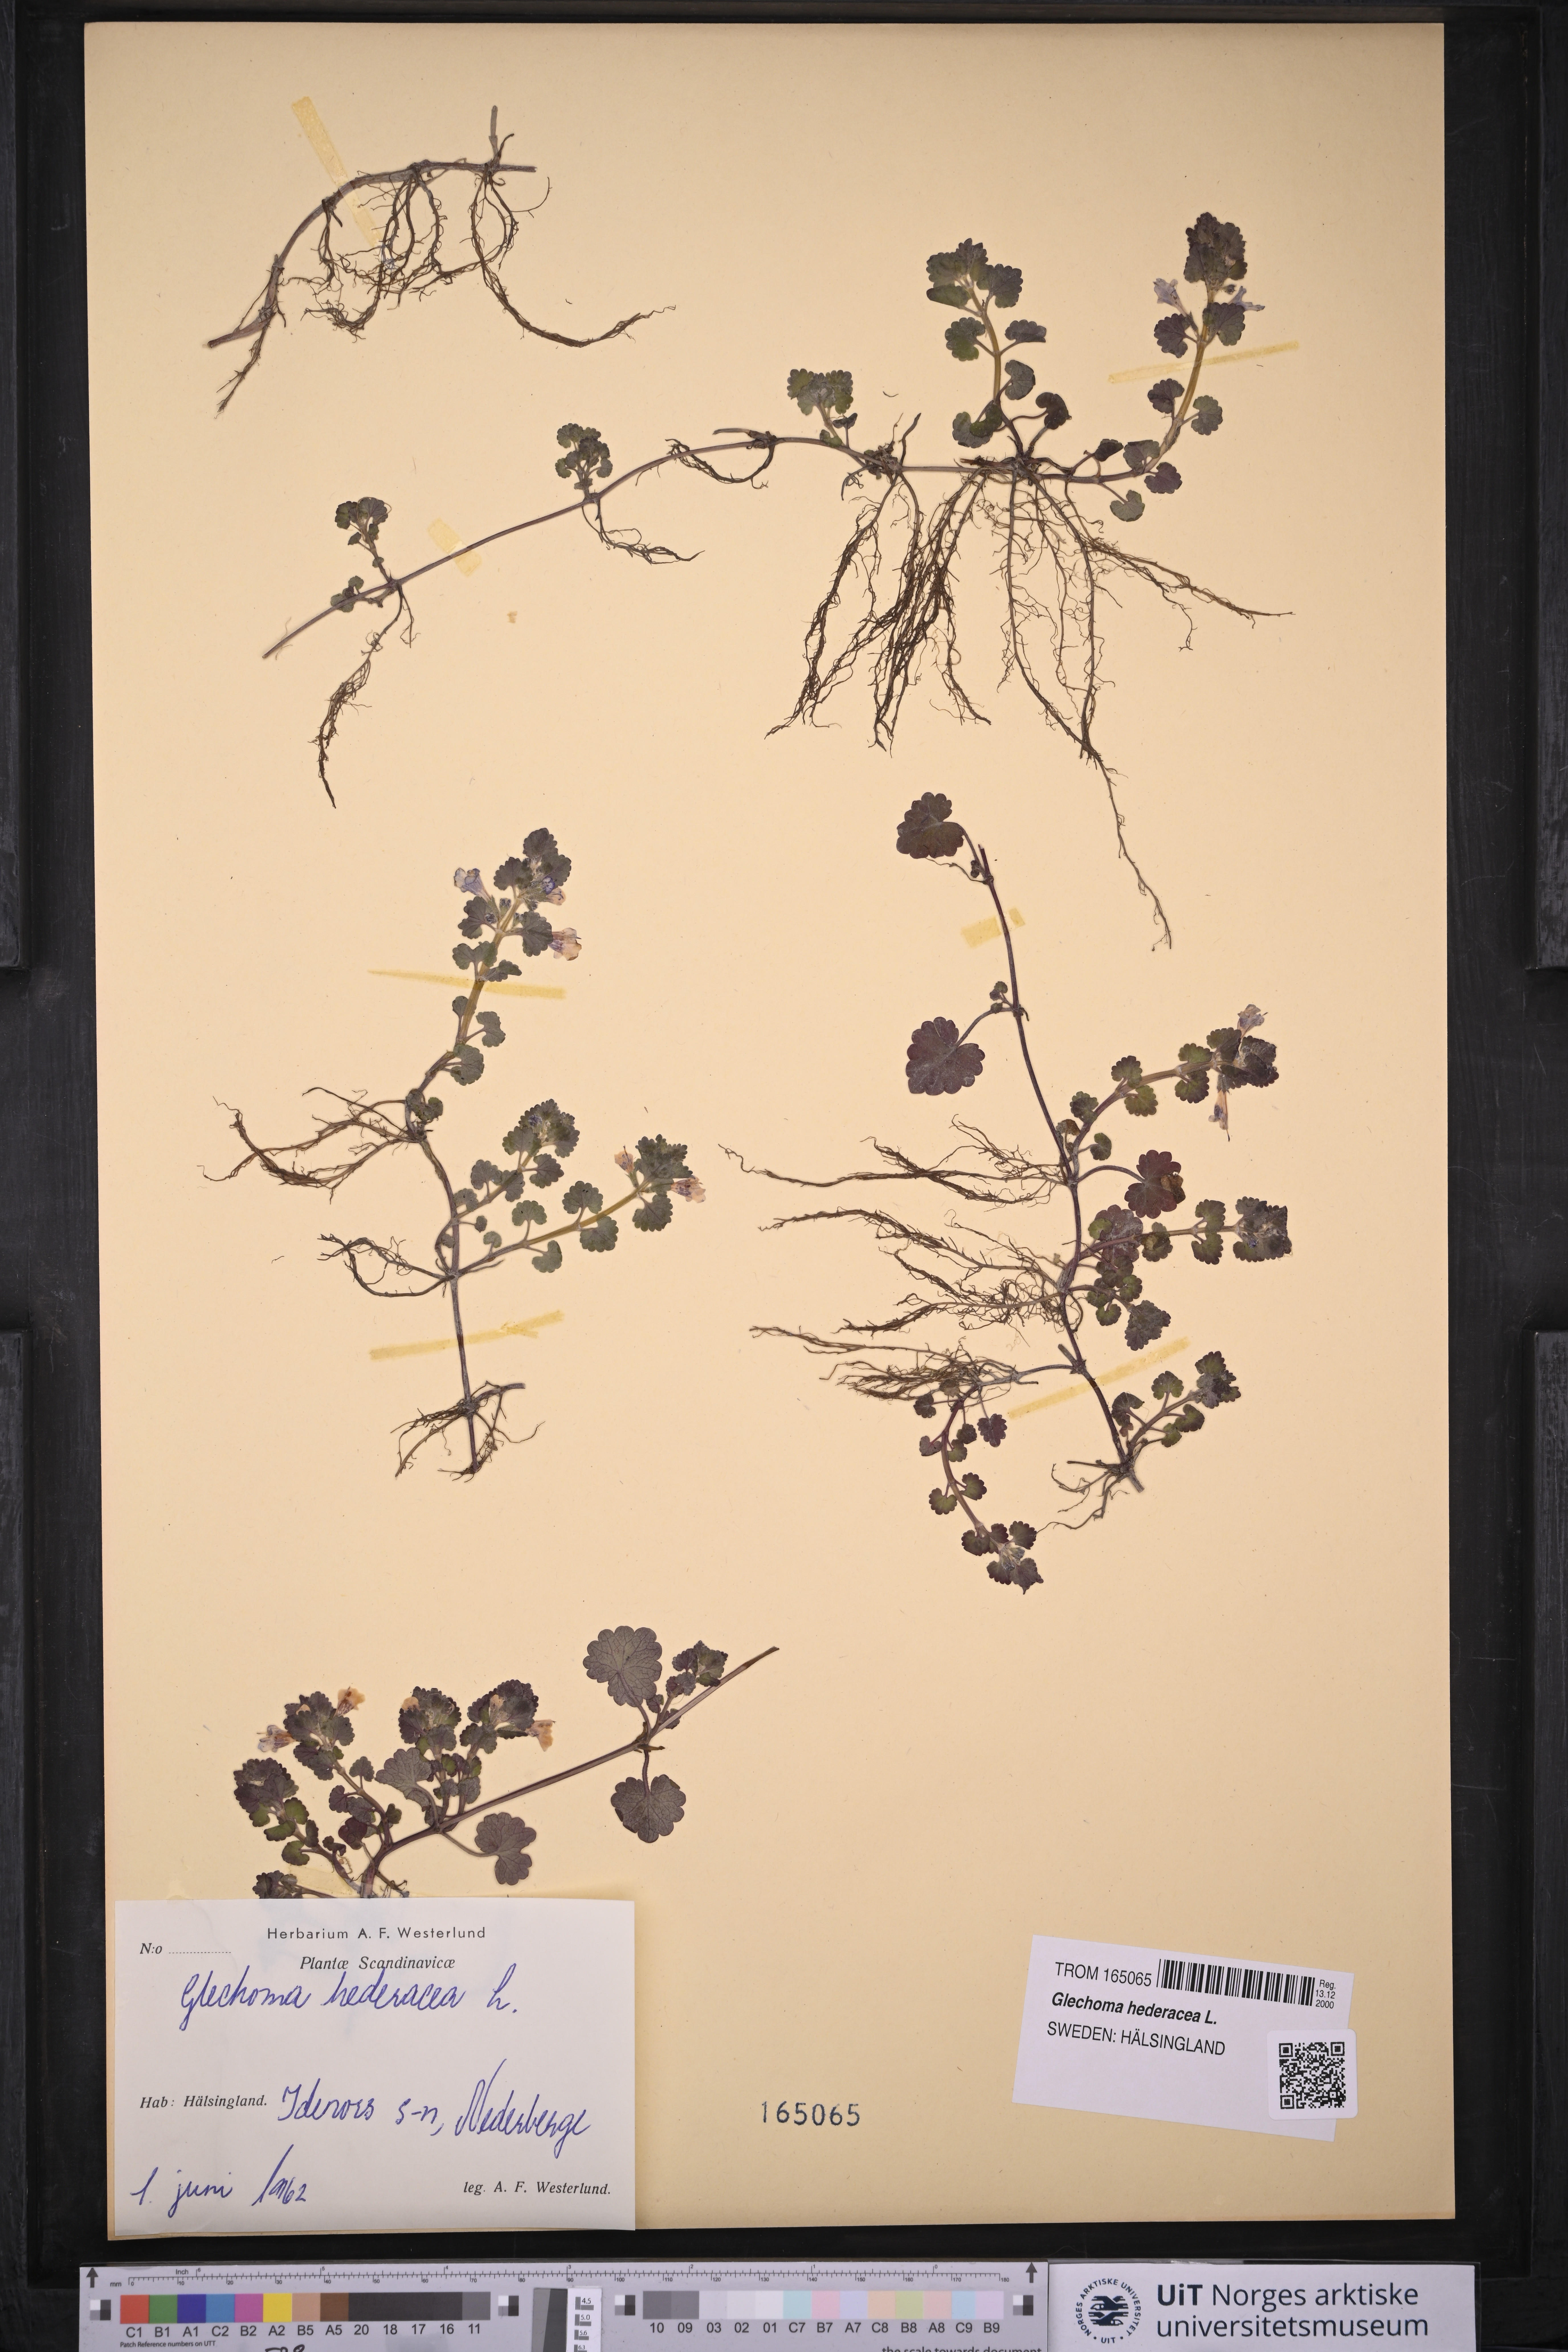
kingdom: Plantae
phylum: Tracheophyta
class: Magnoliopsida
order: Lamiales
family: Lamiaceae
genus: Glechoma
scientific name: Glechoma hederacea
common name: Ground ivy
